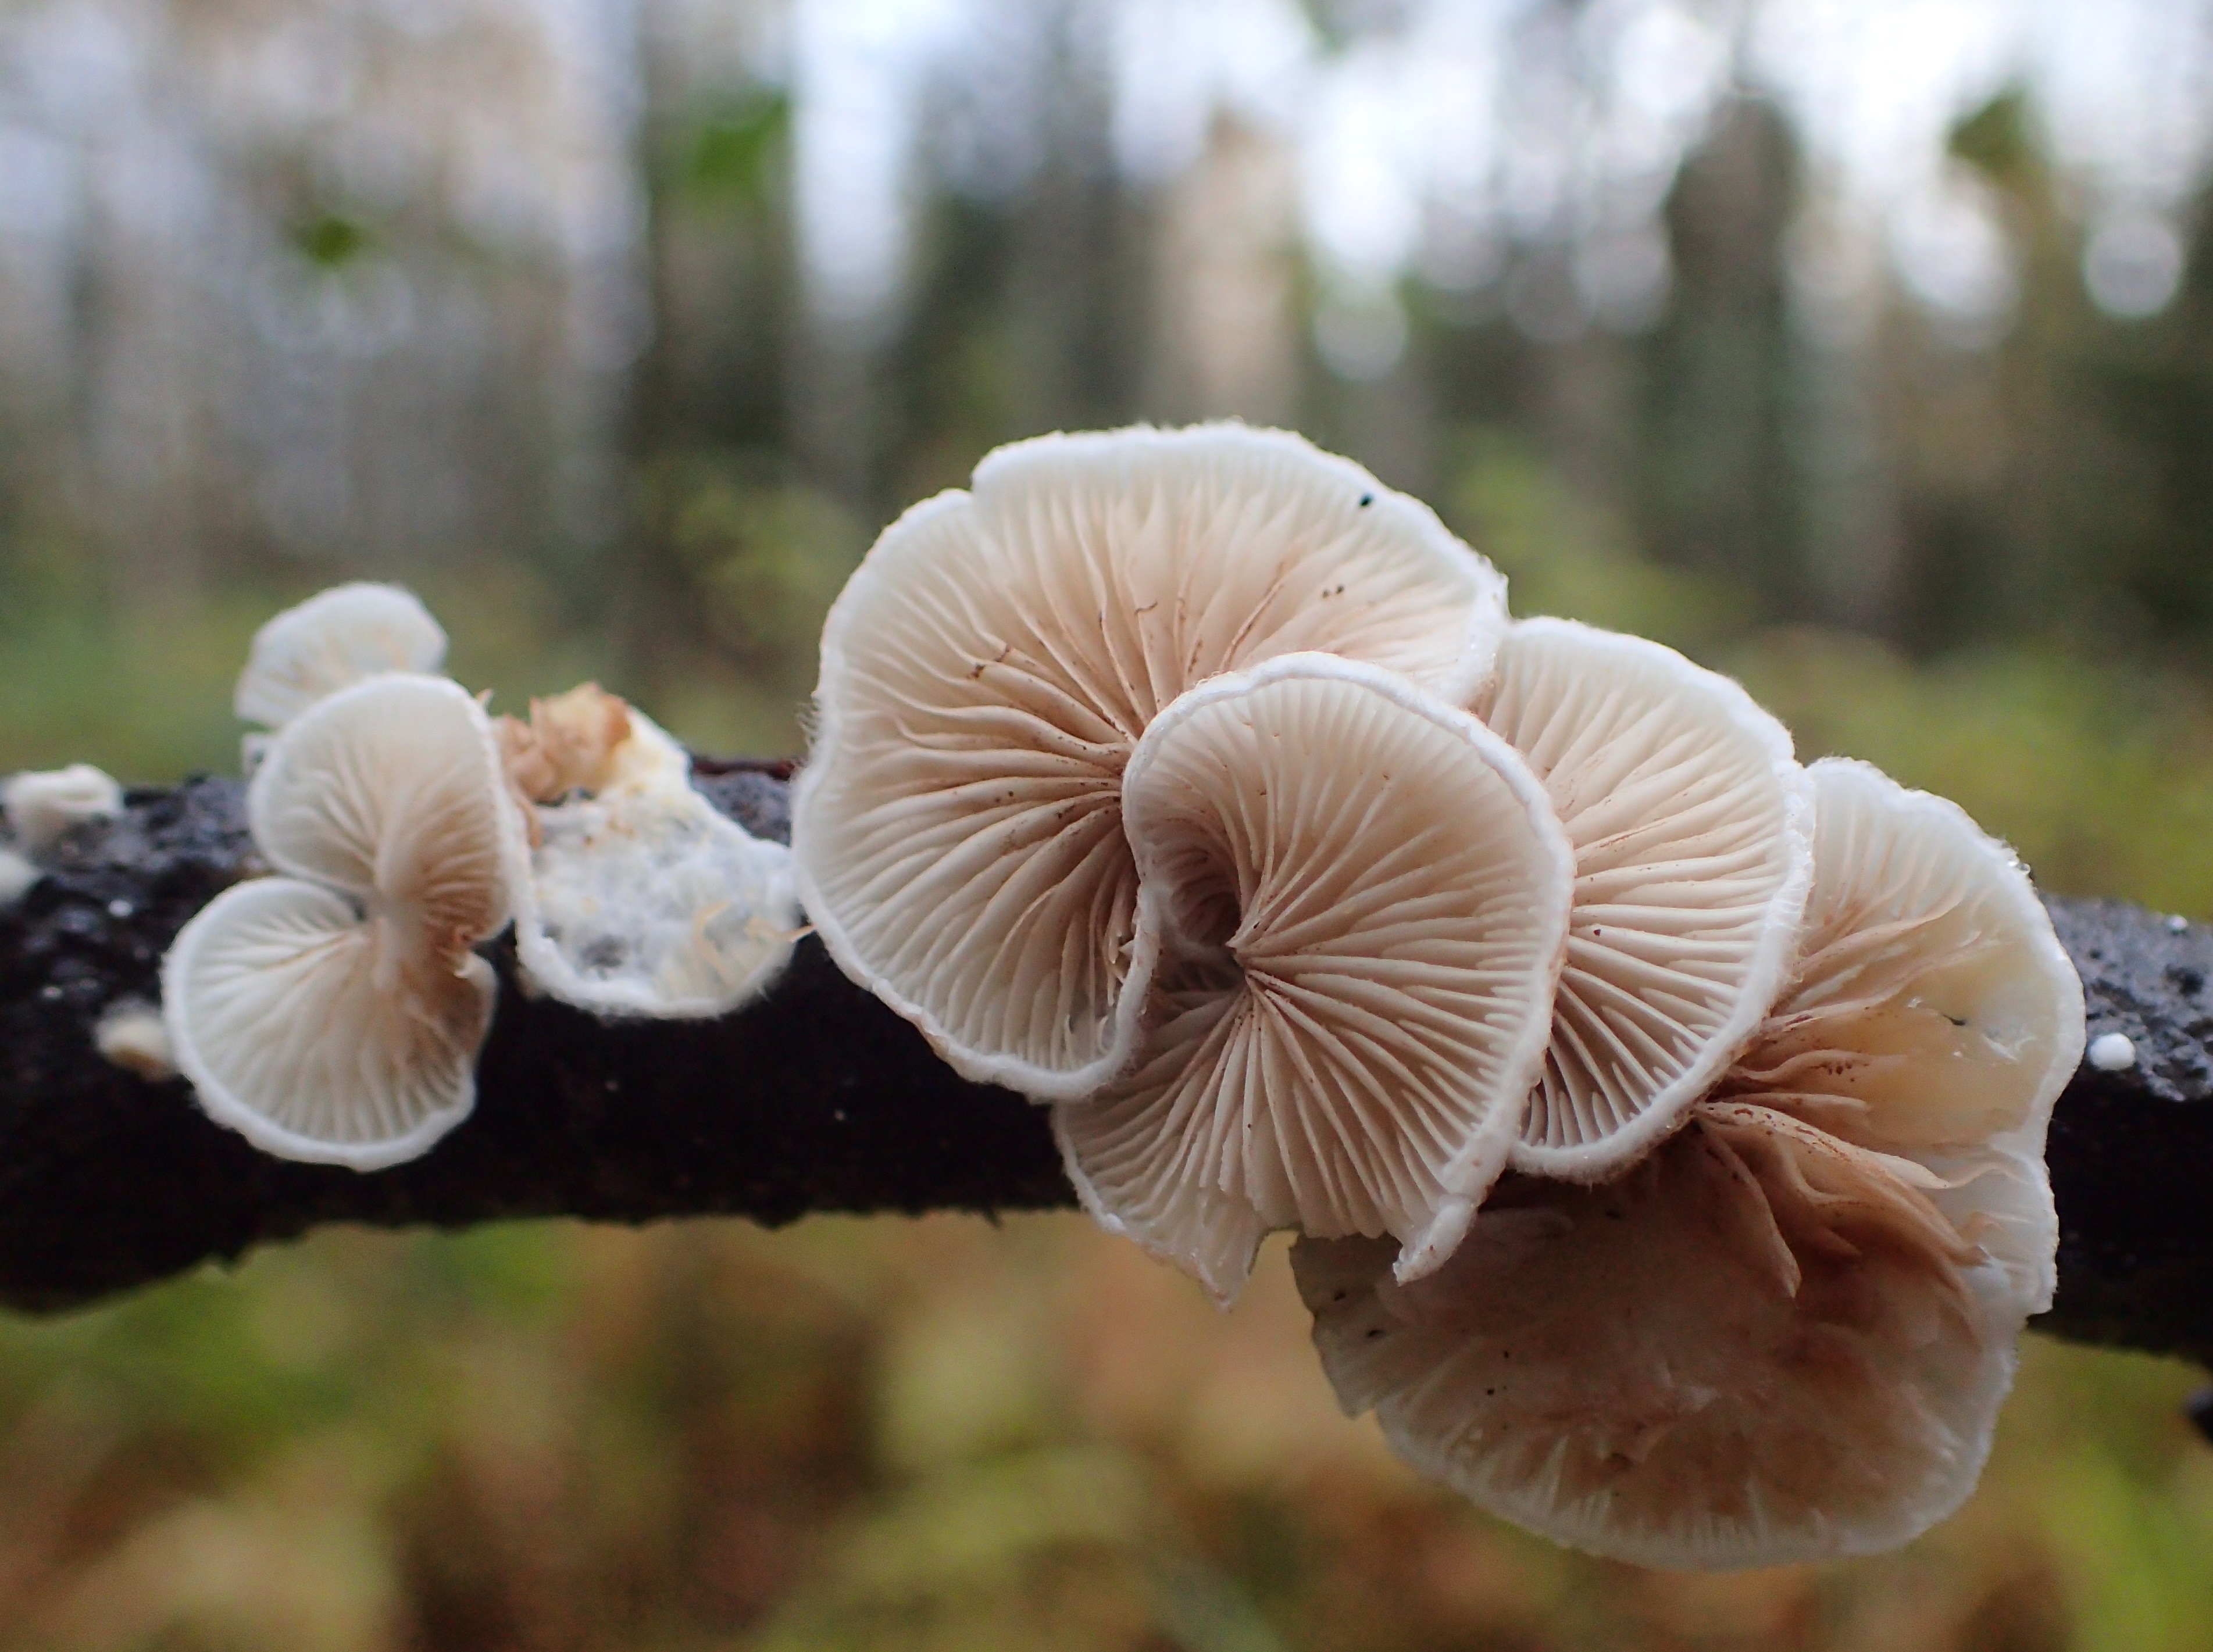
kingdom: Fungi
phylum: Basidiomycota
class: Agaricomycetes
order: Agaricales
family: Entolomataceae
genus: Clitopilus
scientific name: Clitopilus hobsonii
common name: Miller's oysterling
